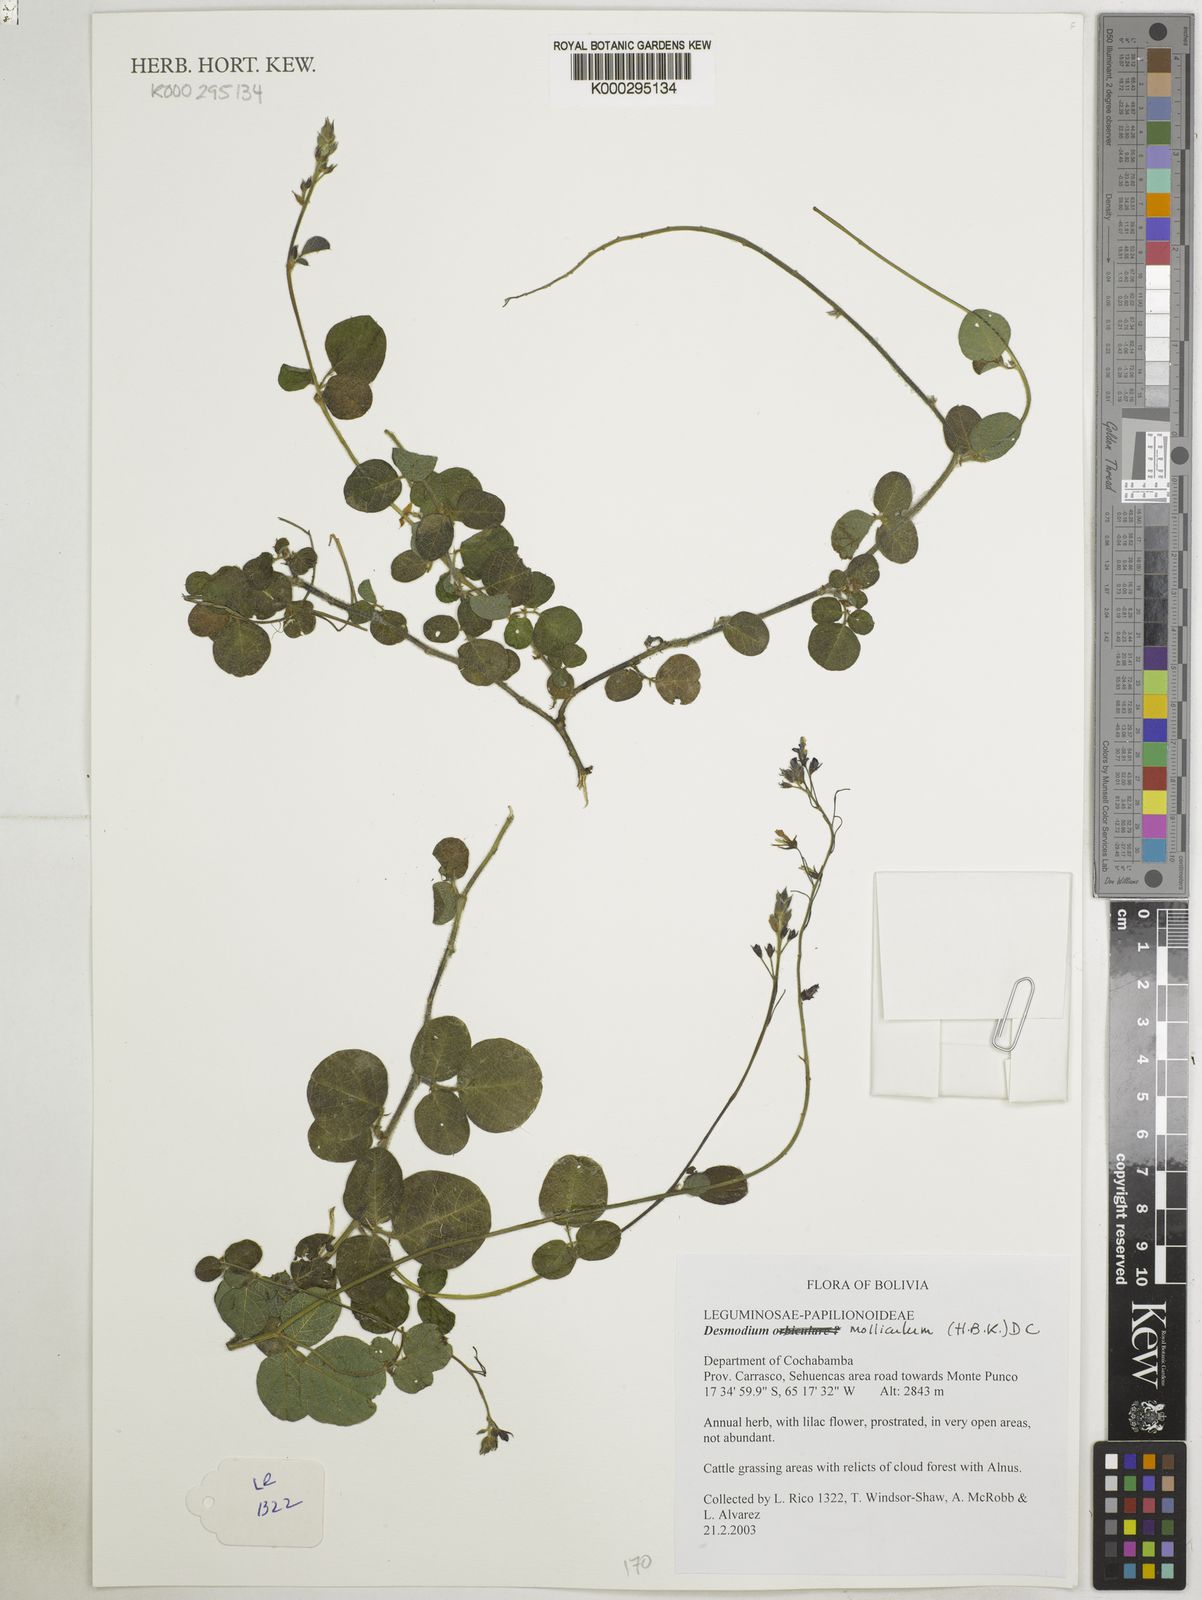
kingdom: Plantae
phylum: Tracheophyta
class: Magnoliopsida
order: Fabales
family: Fabaceae
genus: Desmodium
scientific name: Desmodium molliculum
